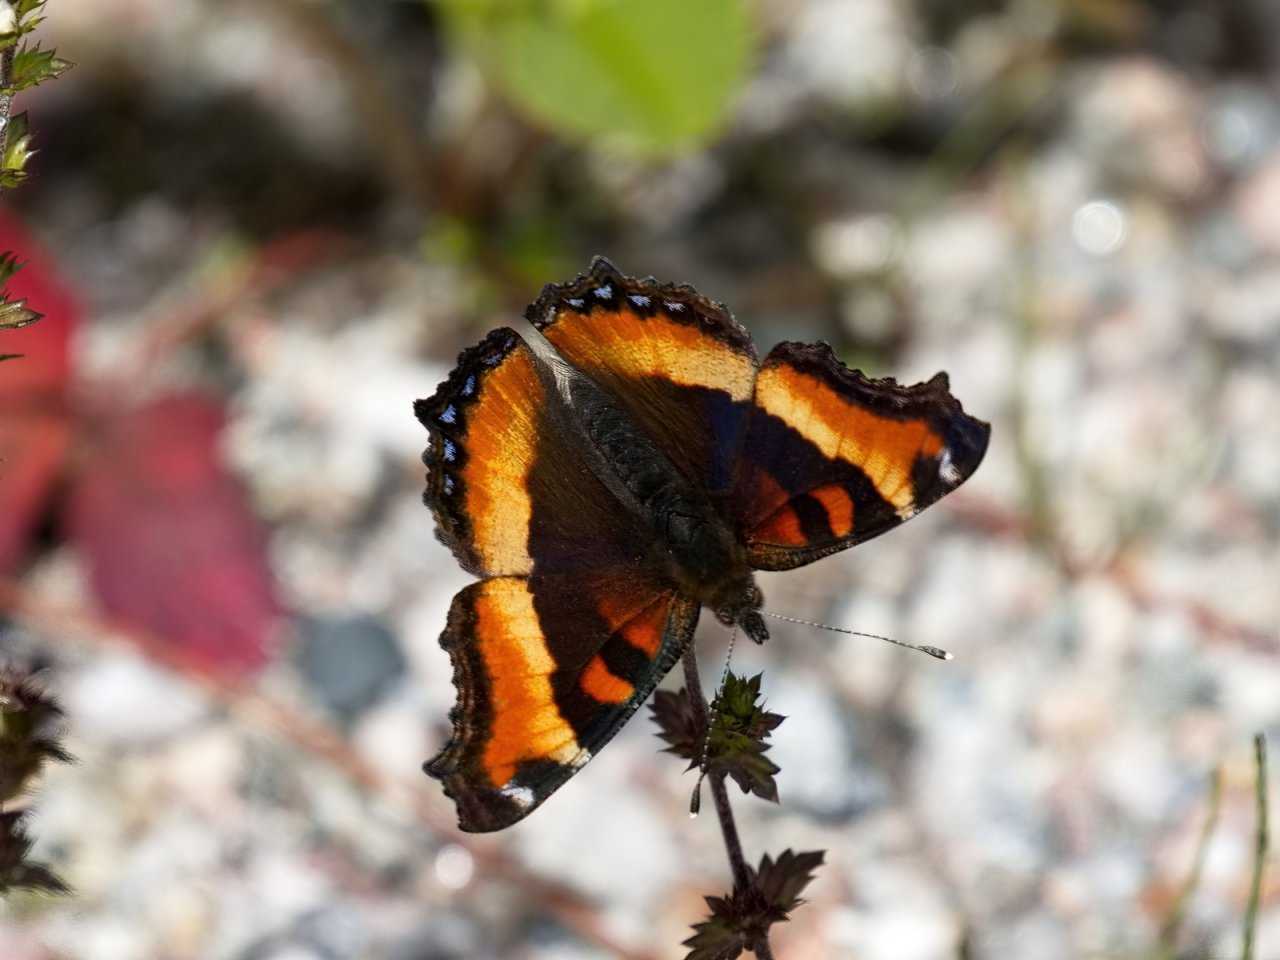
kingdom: Animalia
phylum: Arthropoda
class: Insecta
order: Lepidoptera
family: Nymphalidae
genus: Aglais
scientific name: Aglais milberti
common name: Milbert's Tortoiseshell
